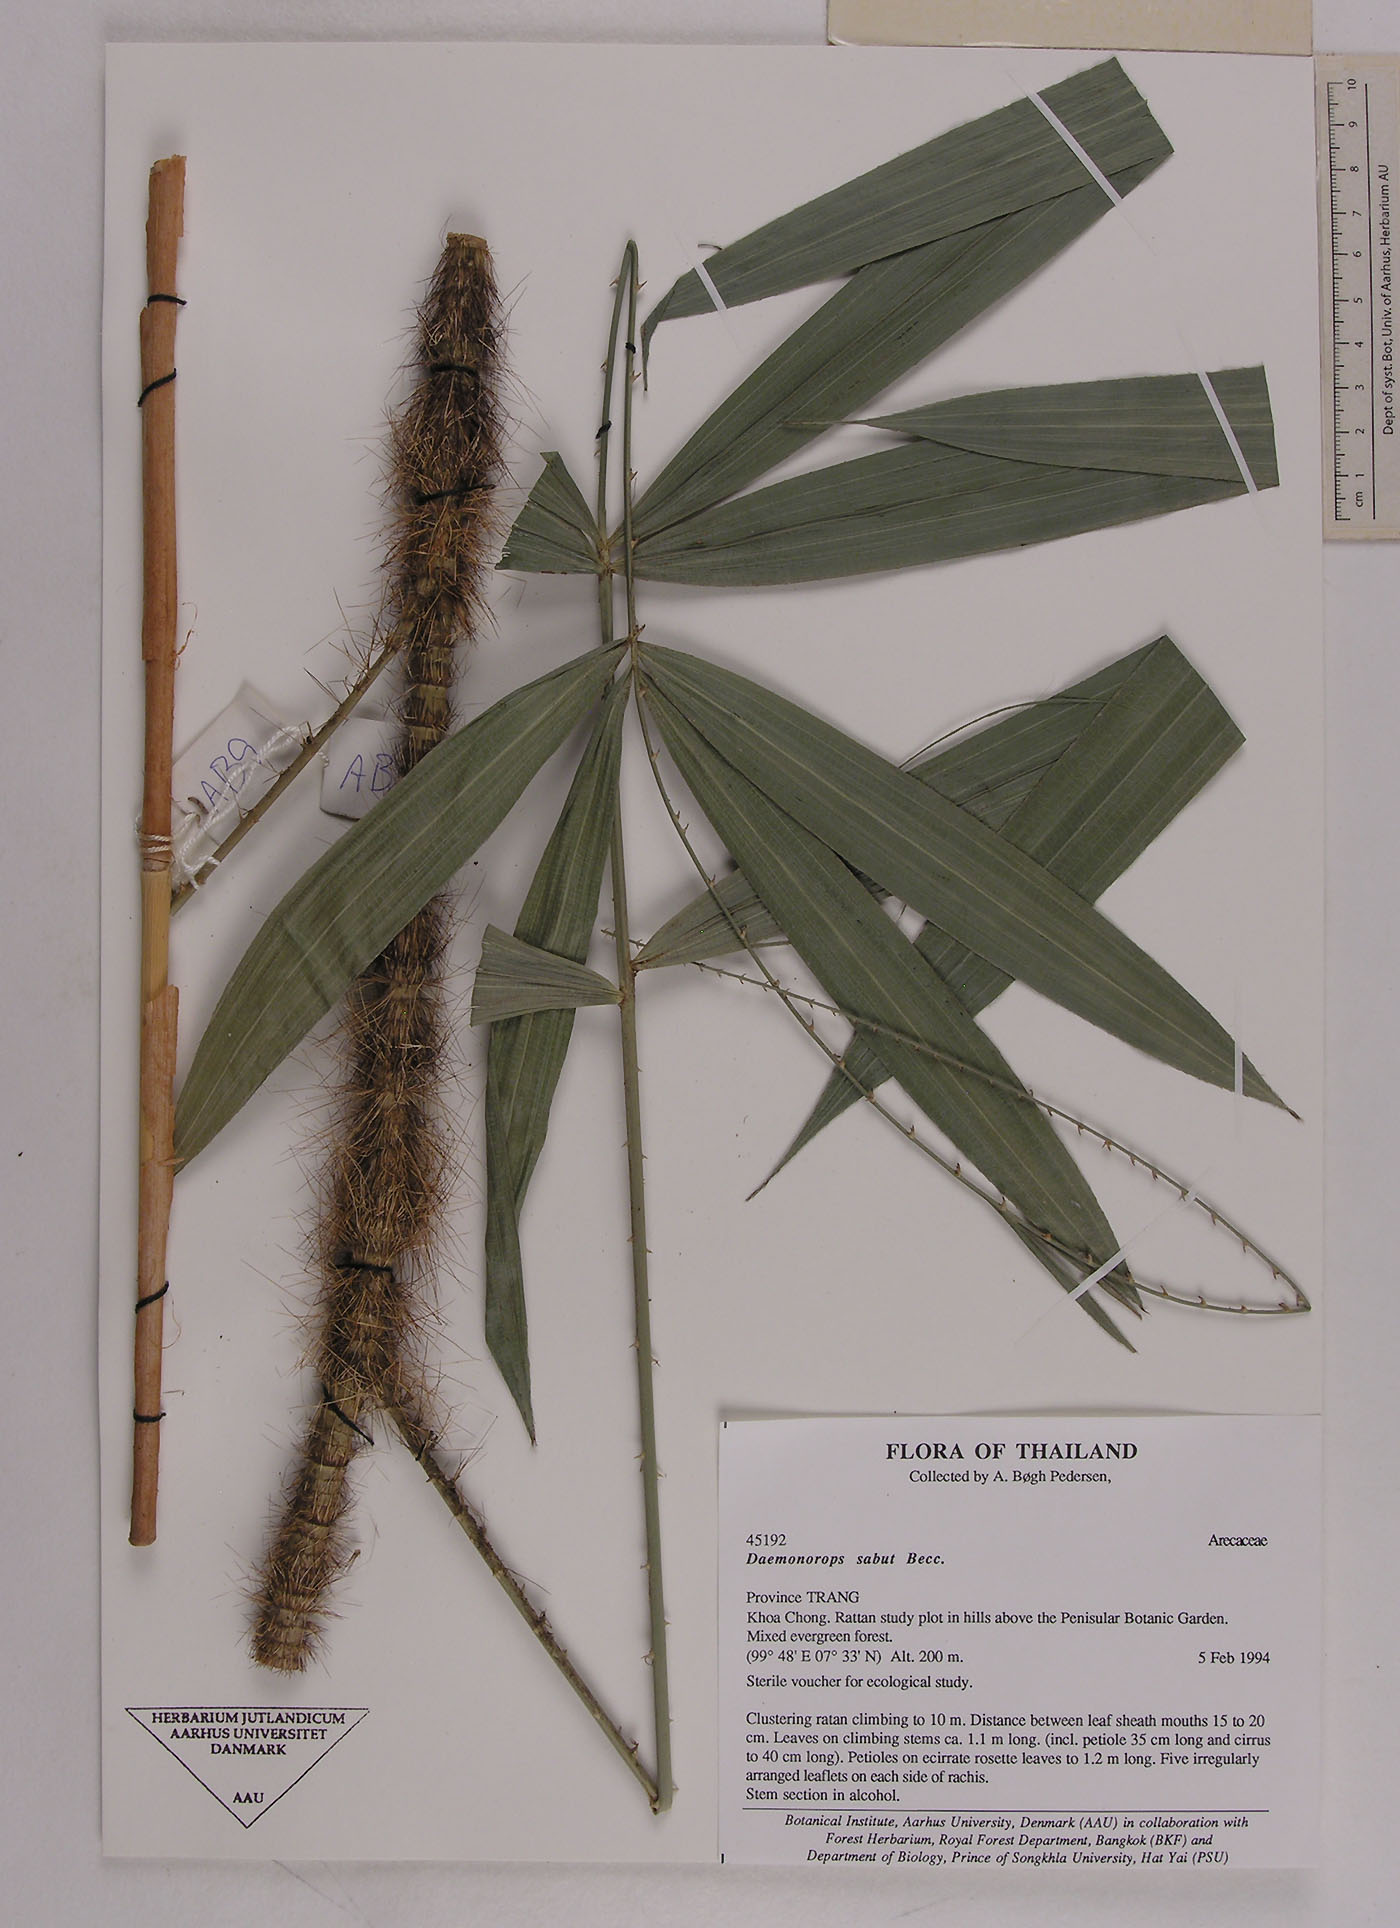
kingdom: Plantae
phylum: Tracheophyta
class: Liliopsida
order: Arecales
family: Arecaceae
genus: Calamus
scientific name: Calamus crinitus
